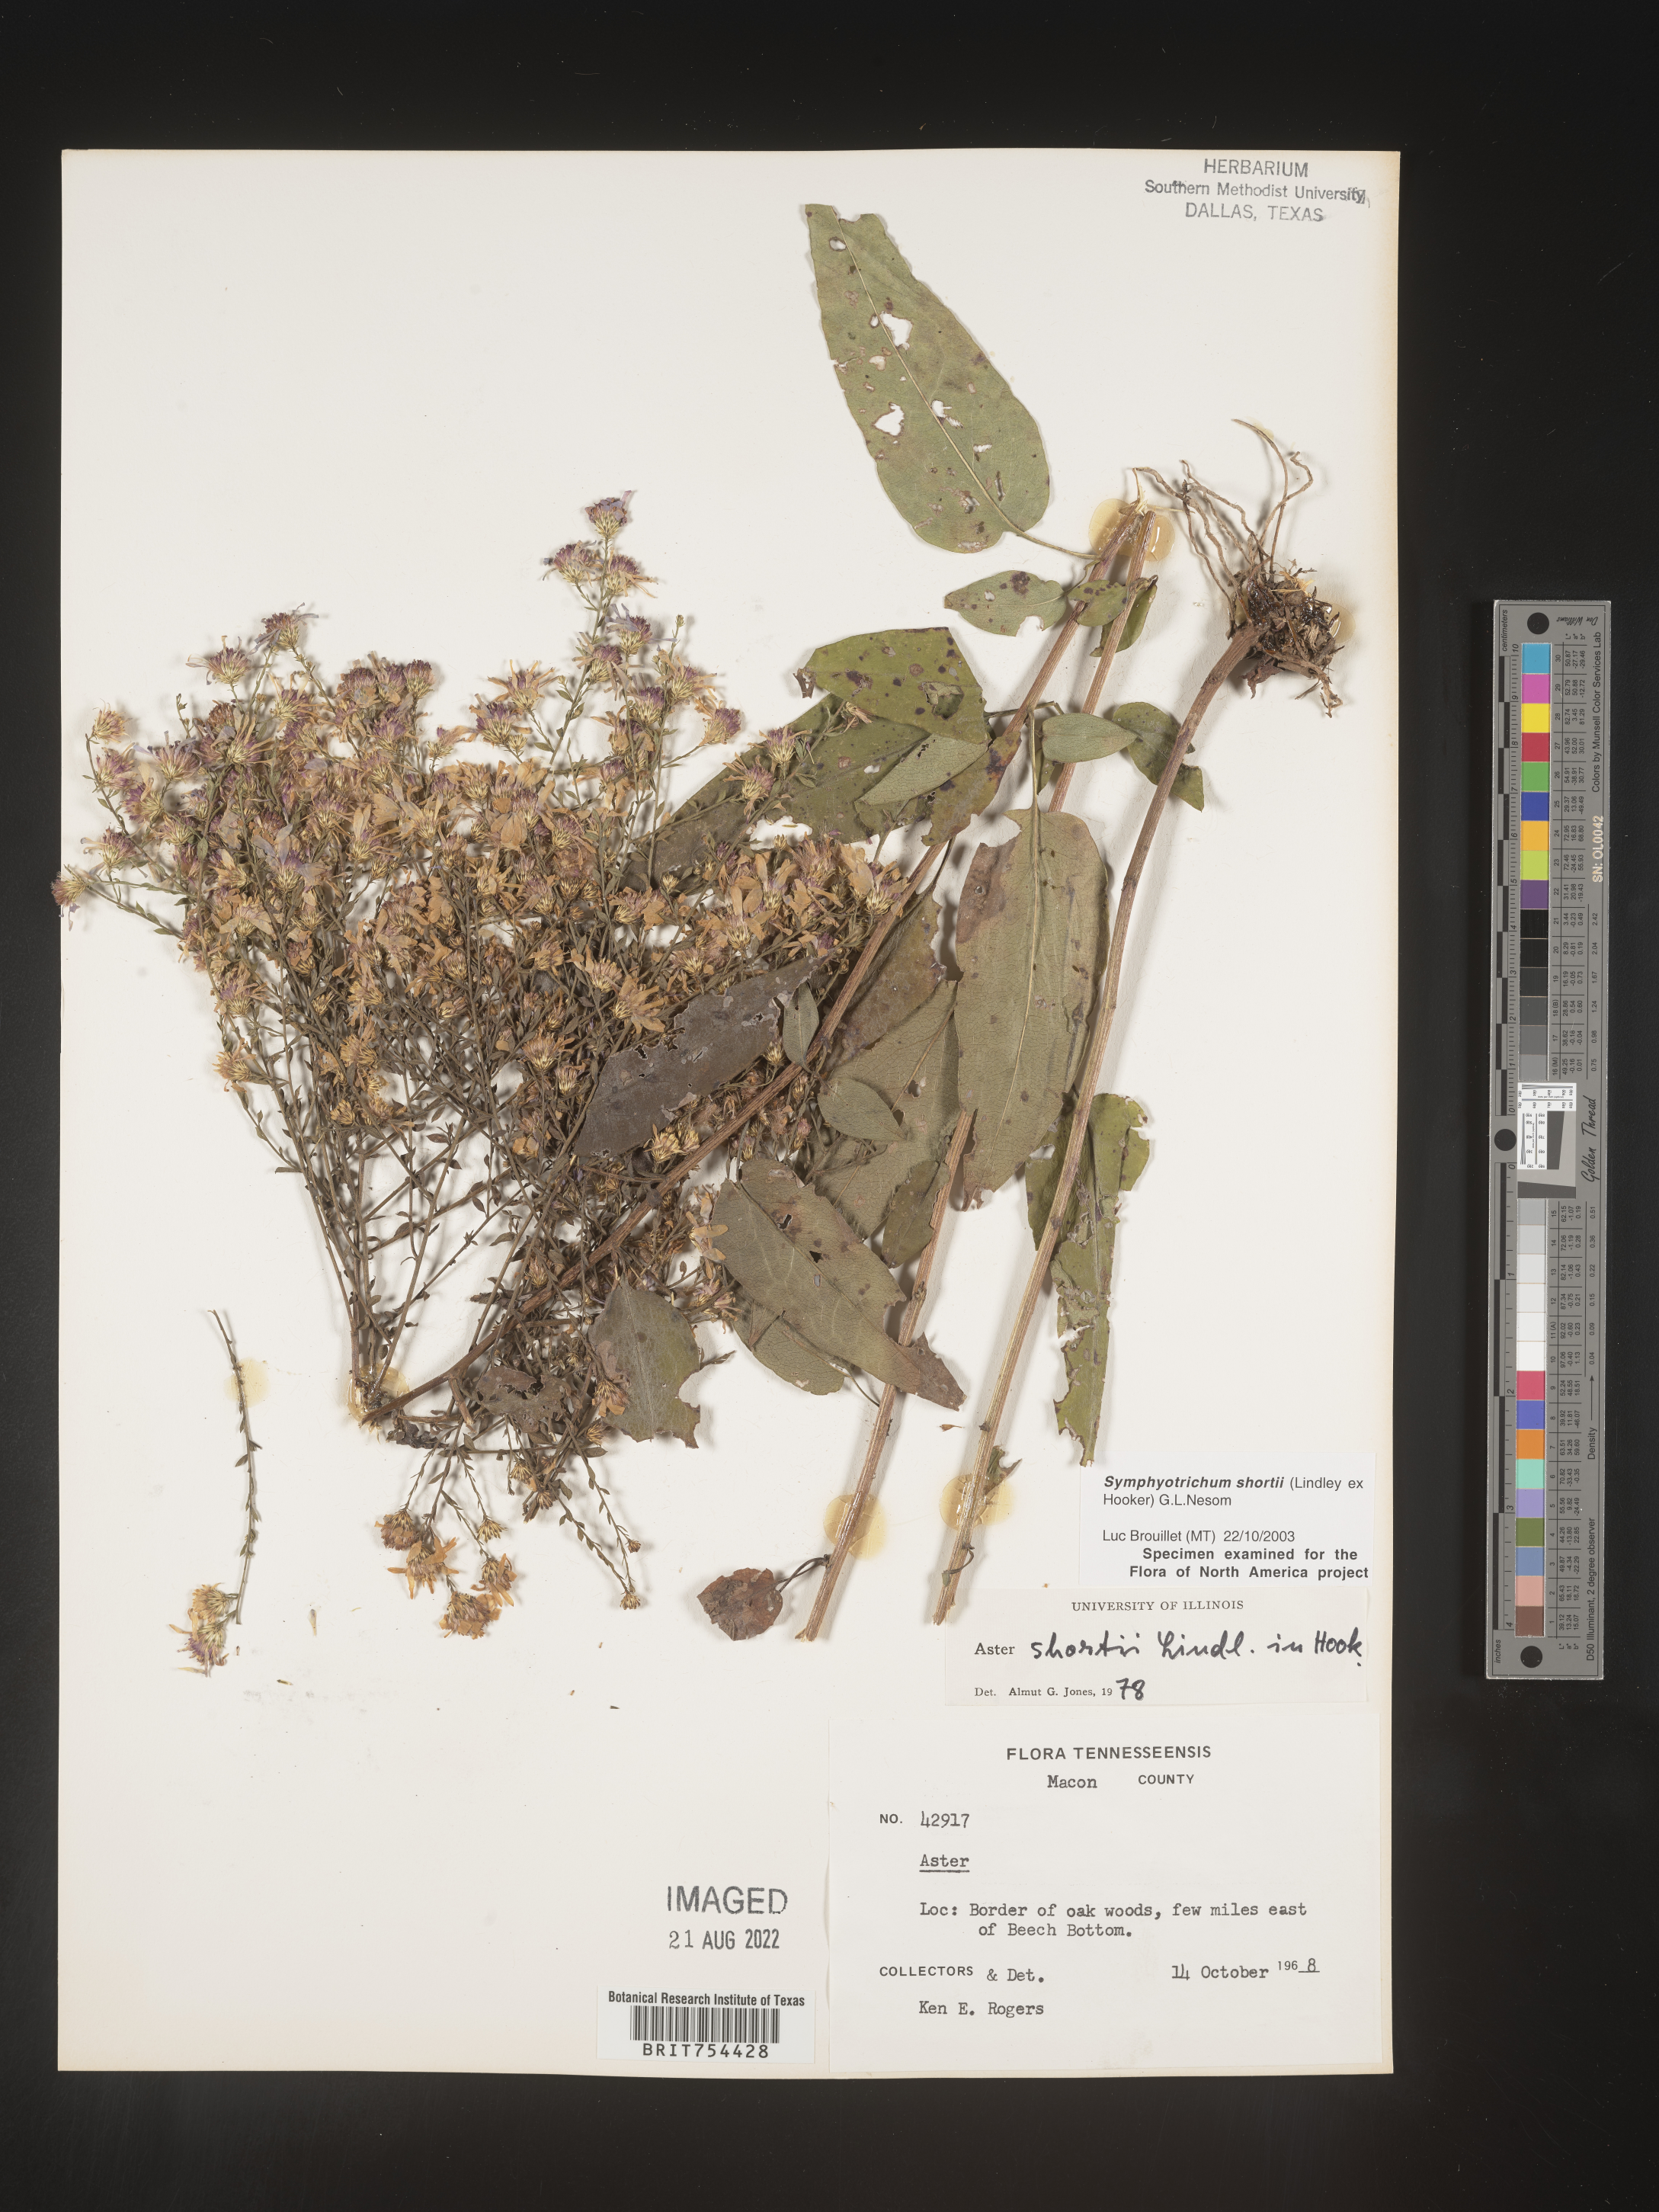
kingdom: Plantae
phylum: Tracheophyta
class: Magnoliopsida
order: Asterales
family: Asteraceae
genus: Symphyotrichum
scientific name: Symphyotrichum shortii
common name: Short's aster
